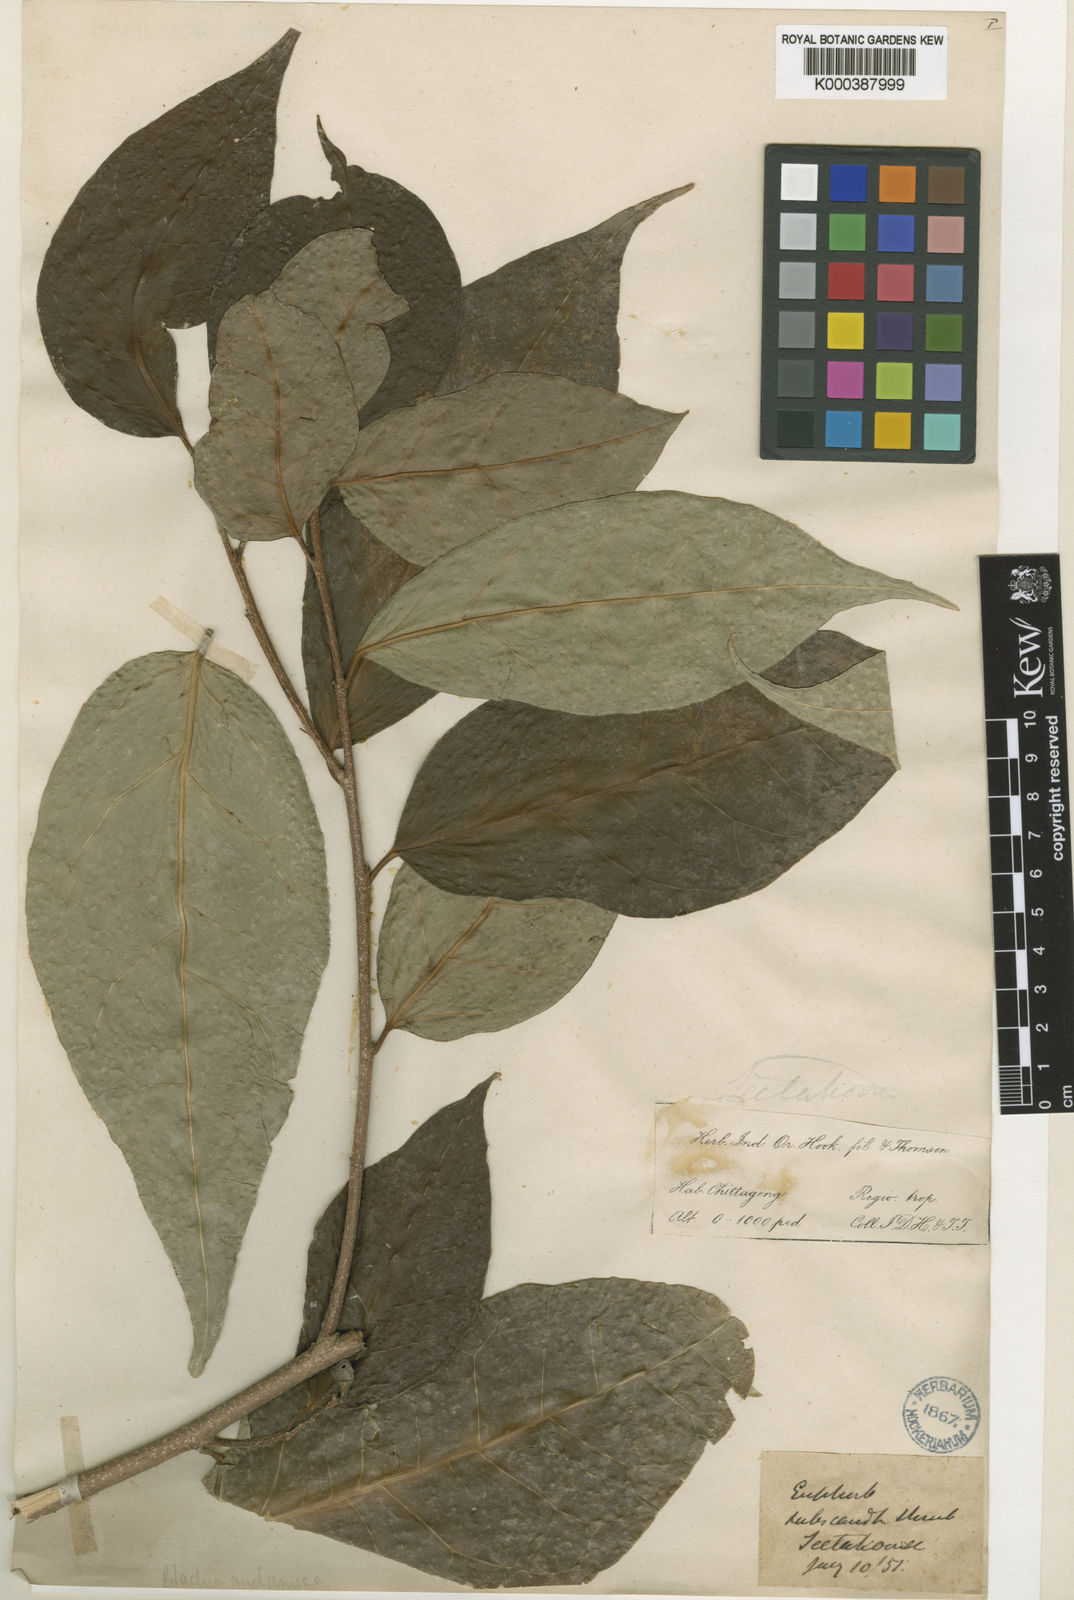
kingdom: Plantae
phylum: Tracheophyta
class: Magnoliopsida
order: Malpighiales
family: Euphorbiaceae
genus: Blachia
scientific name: Blachia andamanica
